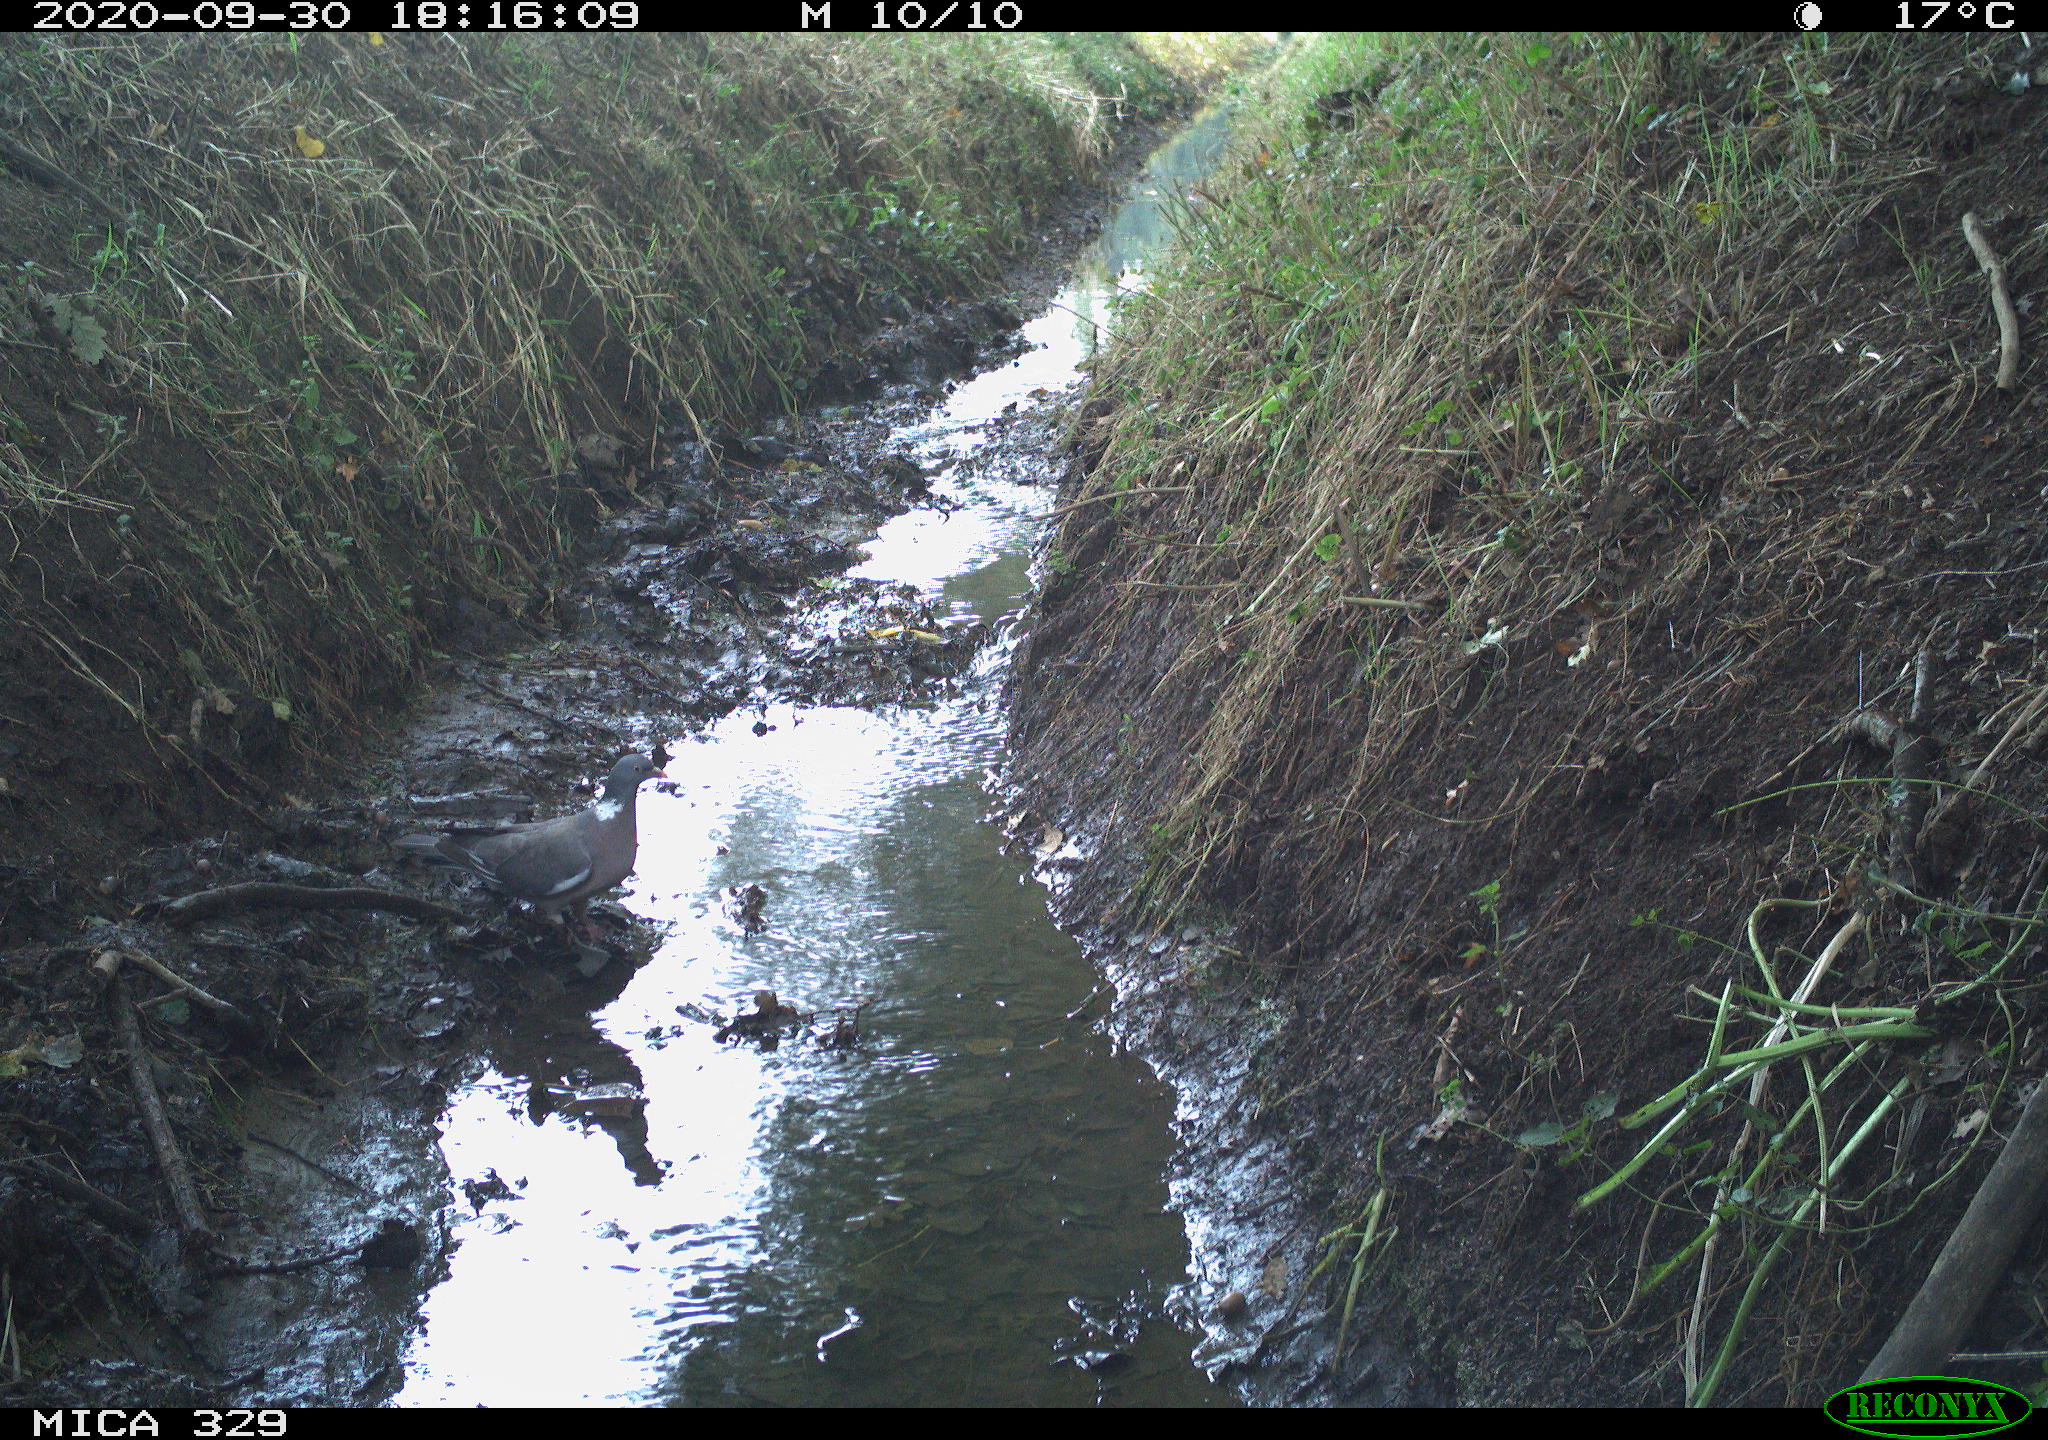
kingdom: Animalia
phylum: Chordata
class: Aves
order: Columbiformes
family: Columbidae
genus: Columba
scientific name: Columba palumbus
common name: Common wood pigeon
